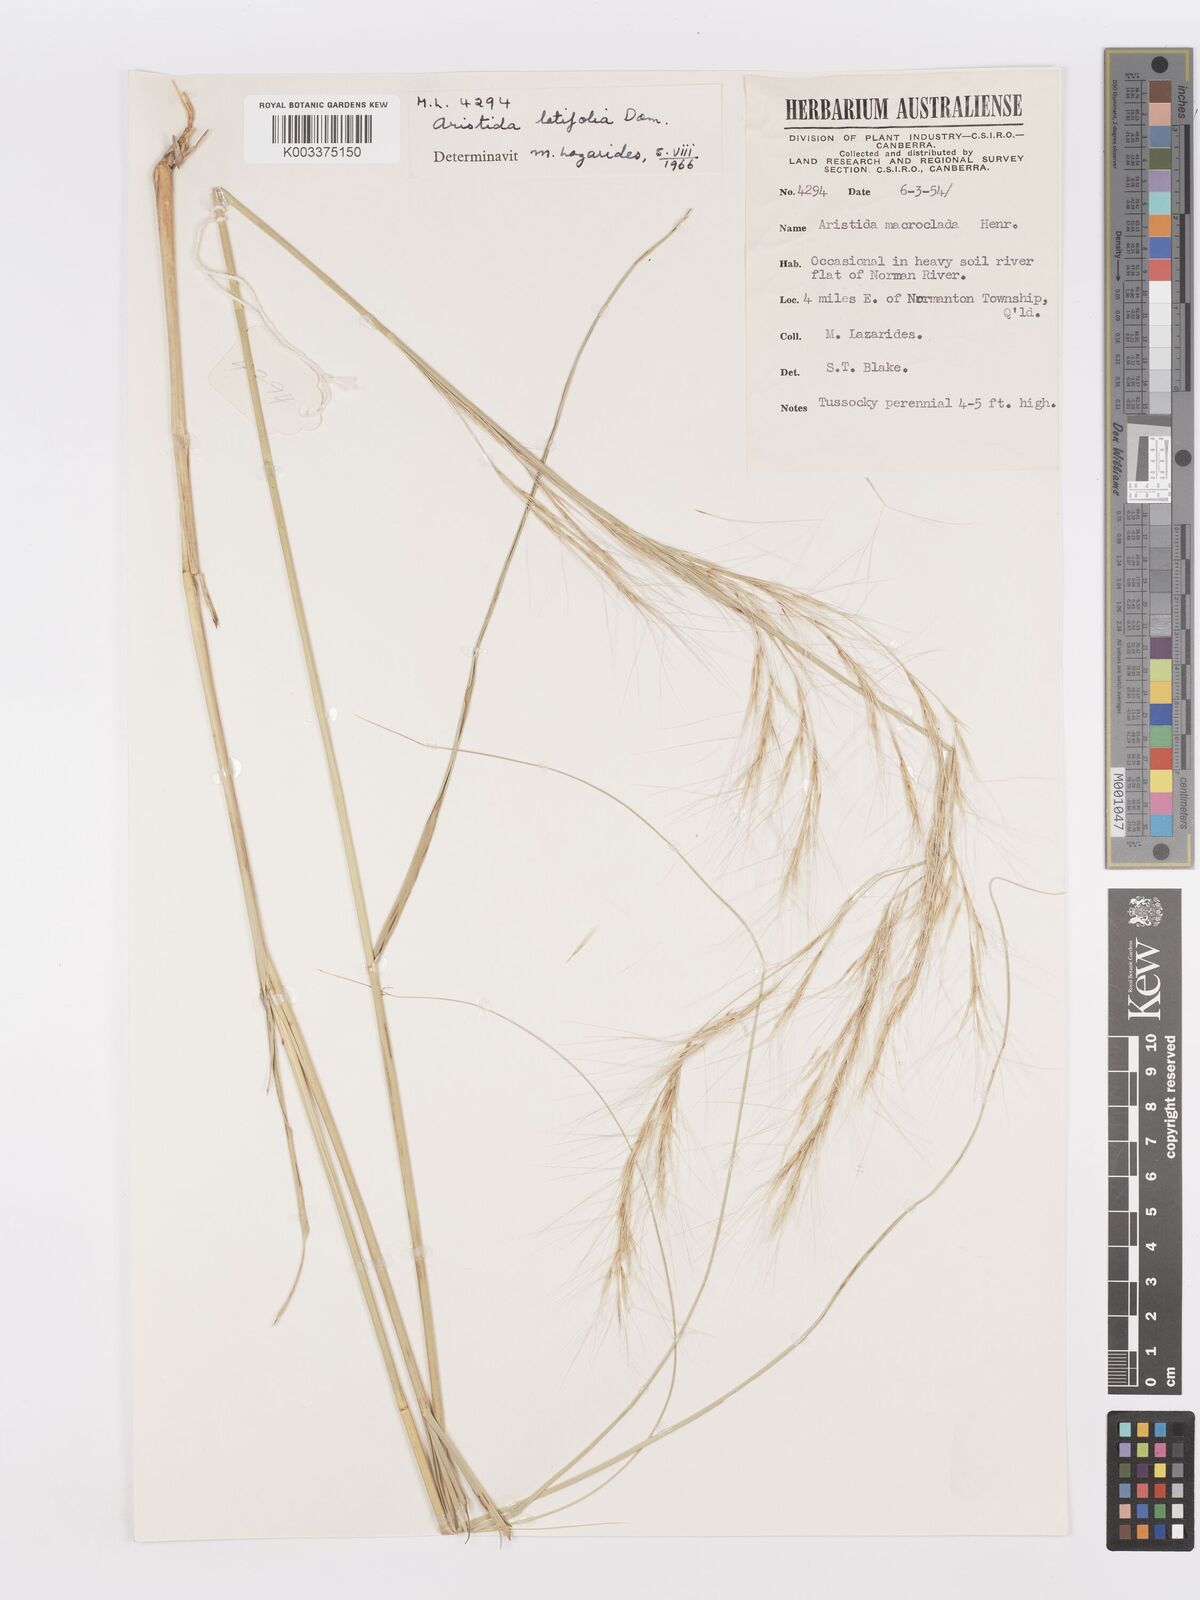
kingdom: Plantae
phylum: Tracheophyta
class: Liliopsida
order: Poales
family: Poaceae
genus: Aristida
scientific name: Aristida latifolia
